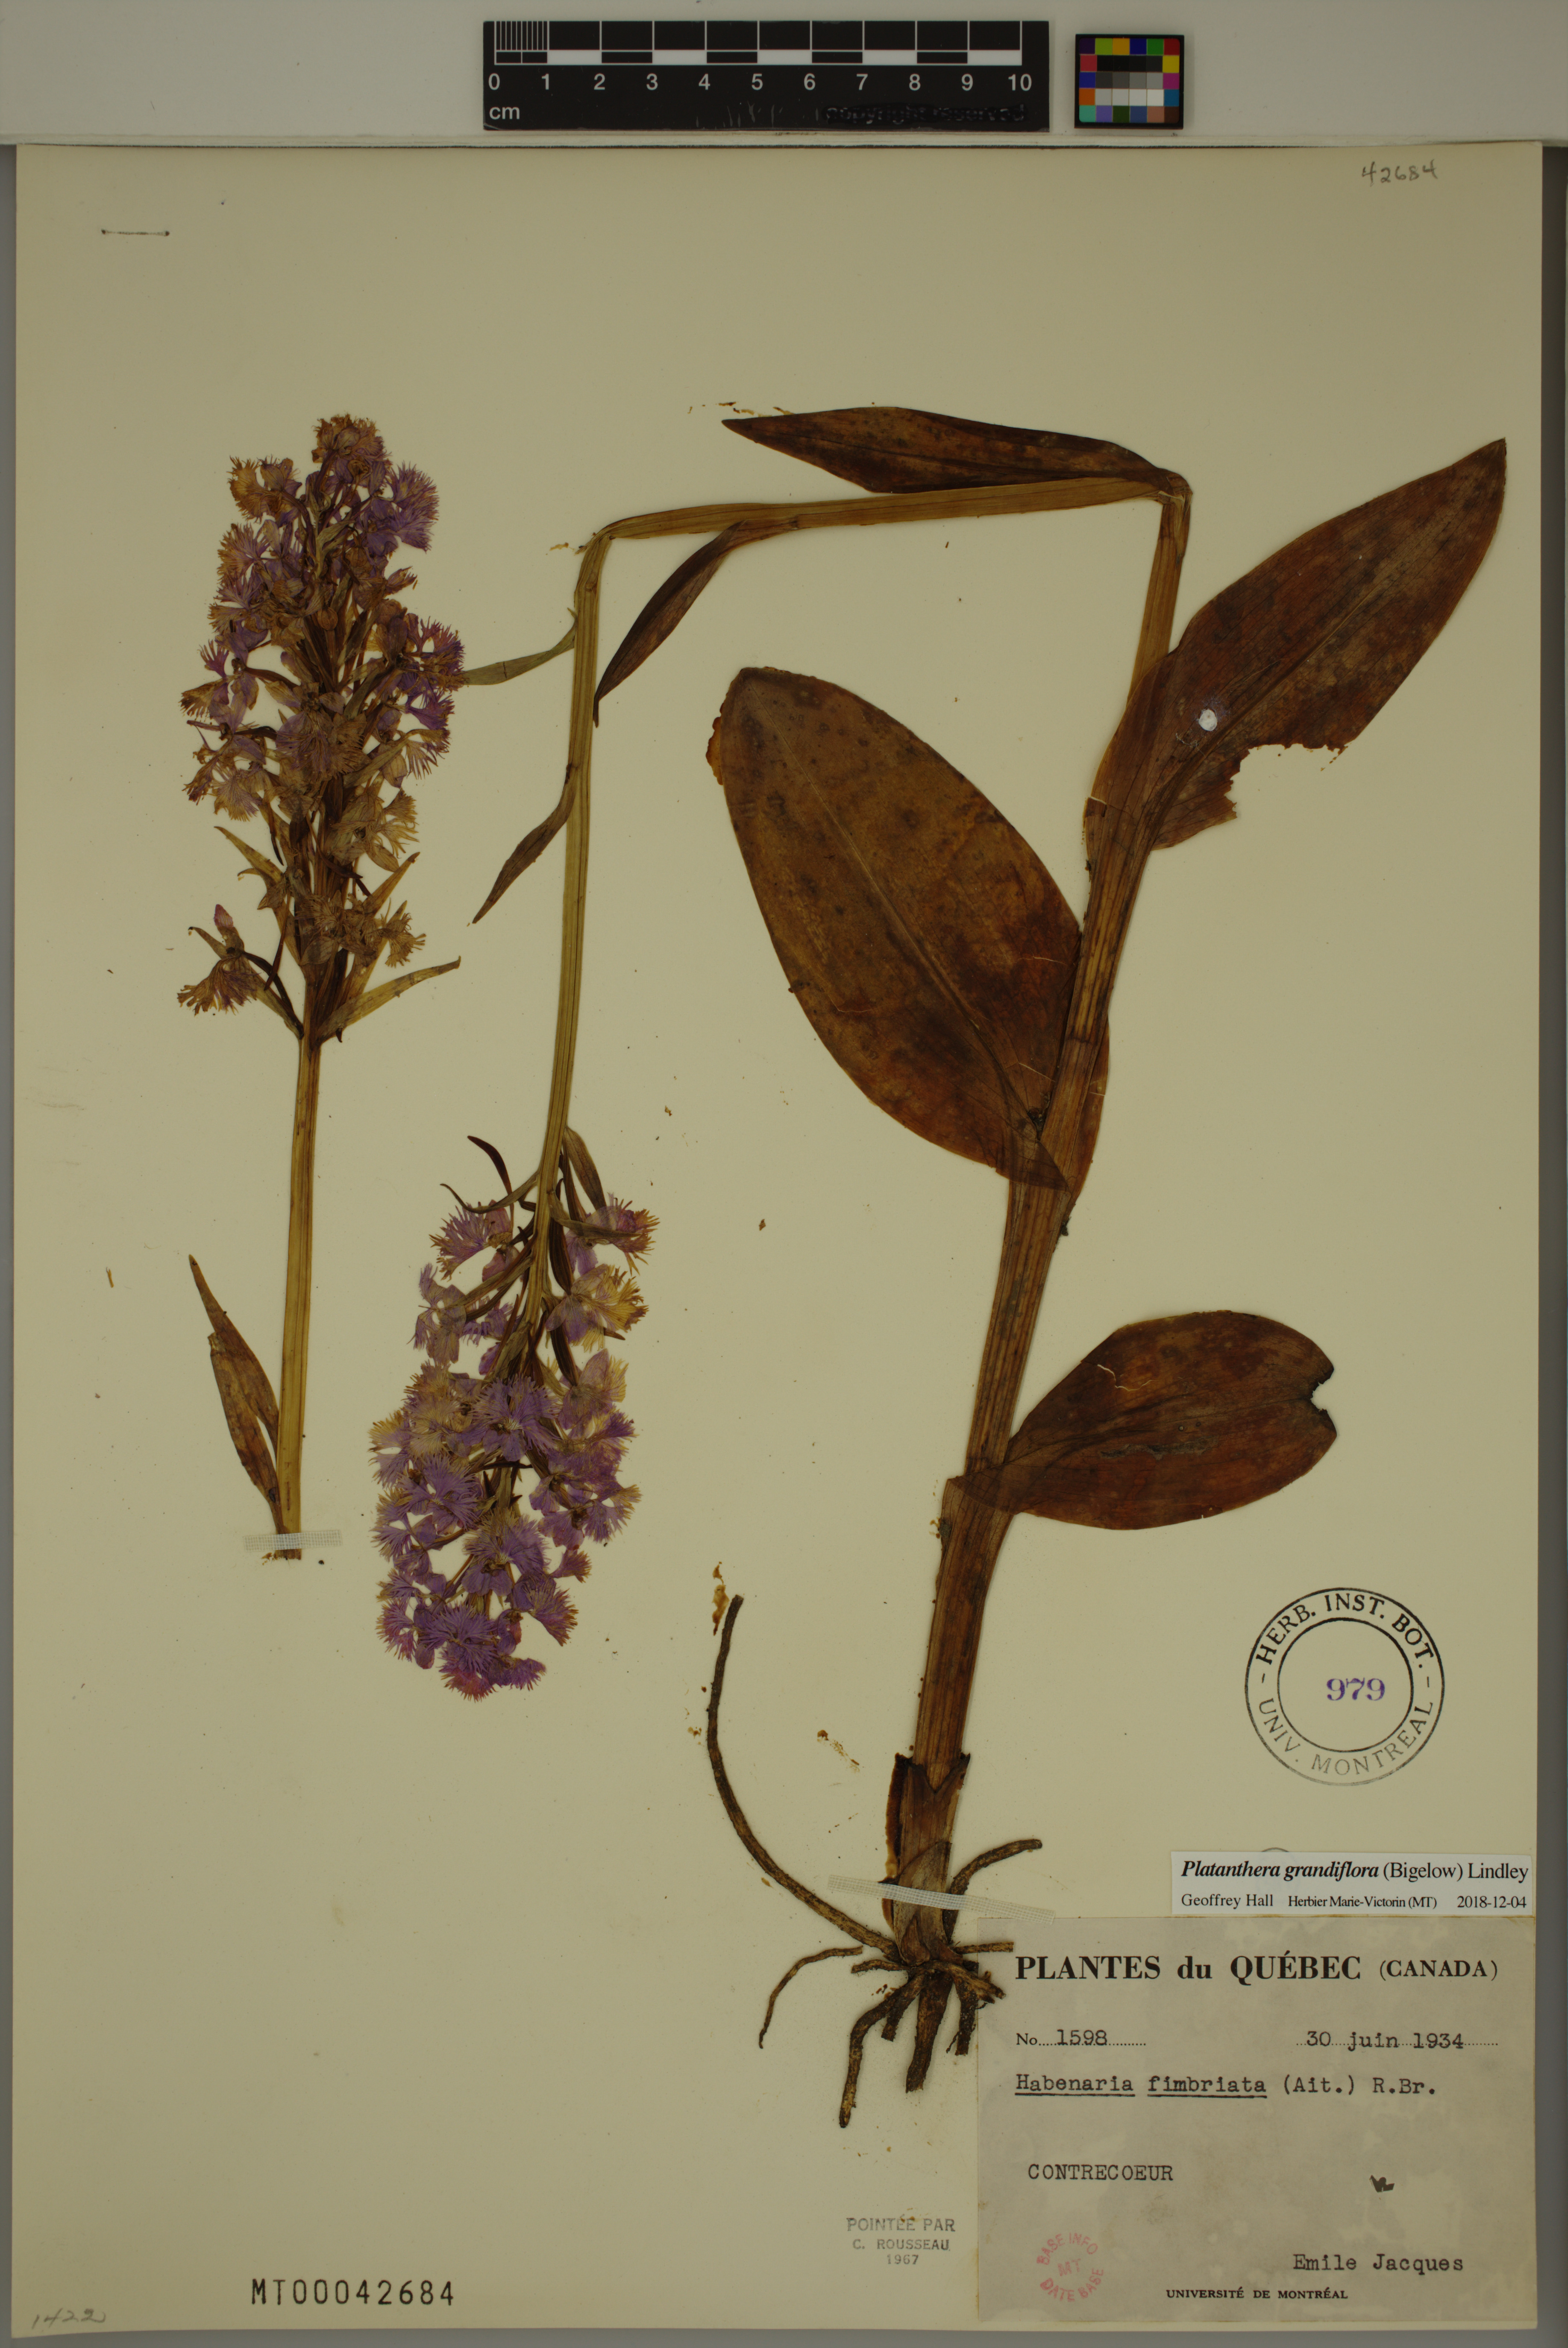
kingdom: Plantae
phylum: Tracheophyta
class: Liliopsida
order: Asparagales
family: Orchidaceae
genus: Platanthera
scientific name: Platanthera grandiflora
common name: Greater purple fringed orchid
